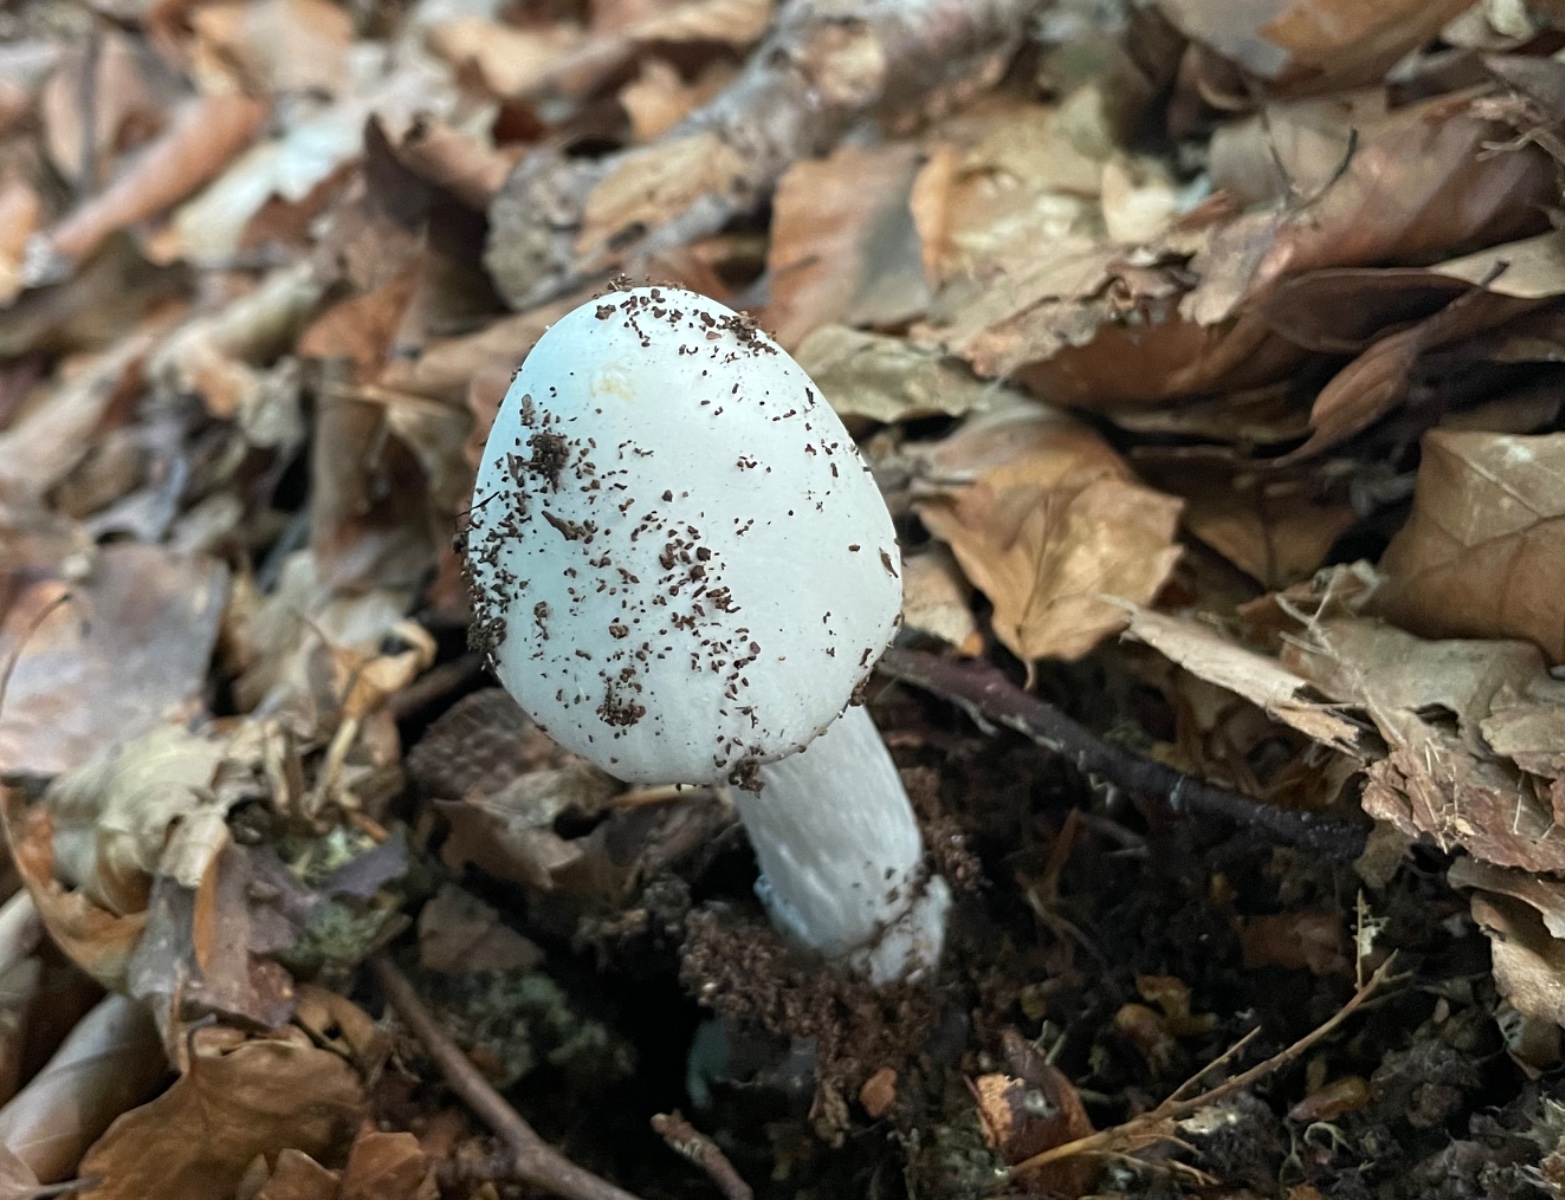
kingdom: Fungi
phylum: Basidiomycota
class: Agaricomycetes
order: Agaricales
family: Amanitaceae
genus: Amanita
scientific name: Amanita virosa
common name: snehvid fluesvamp
